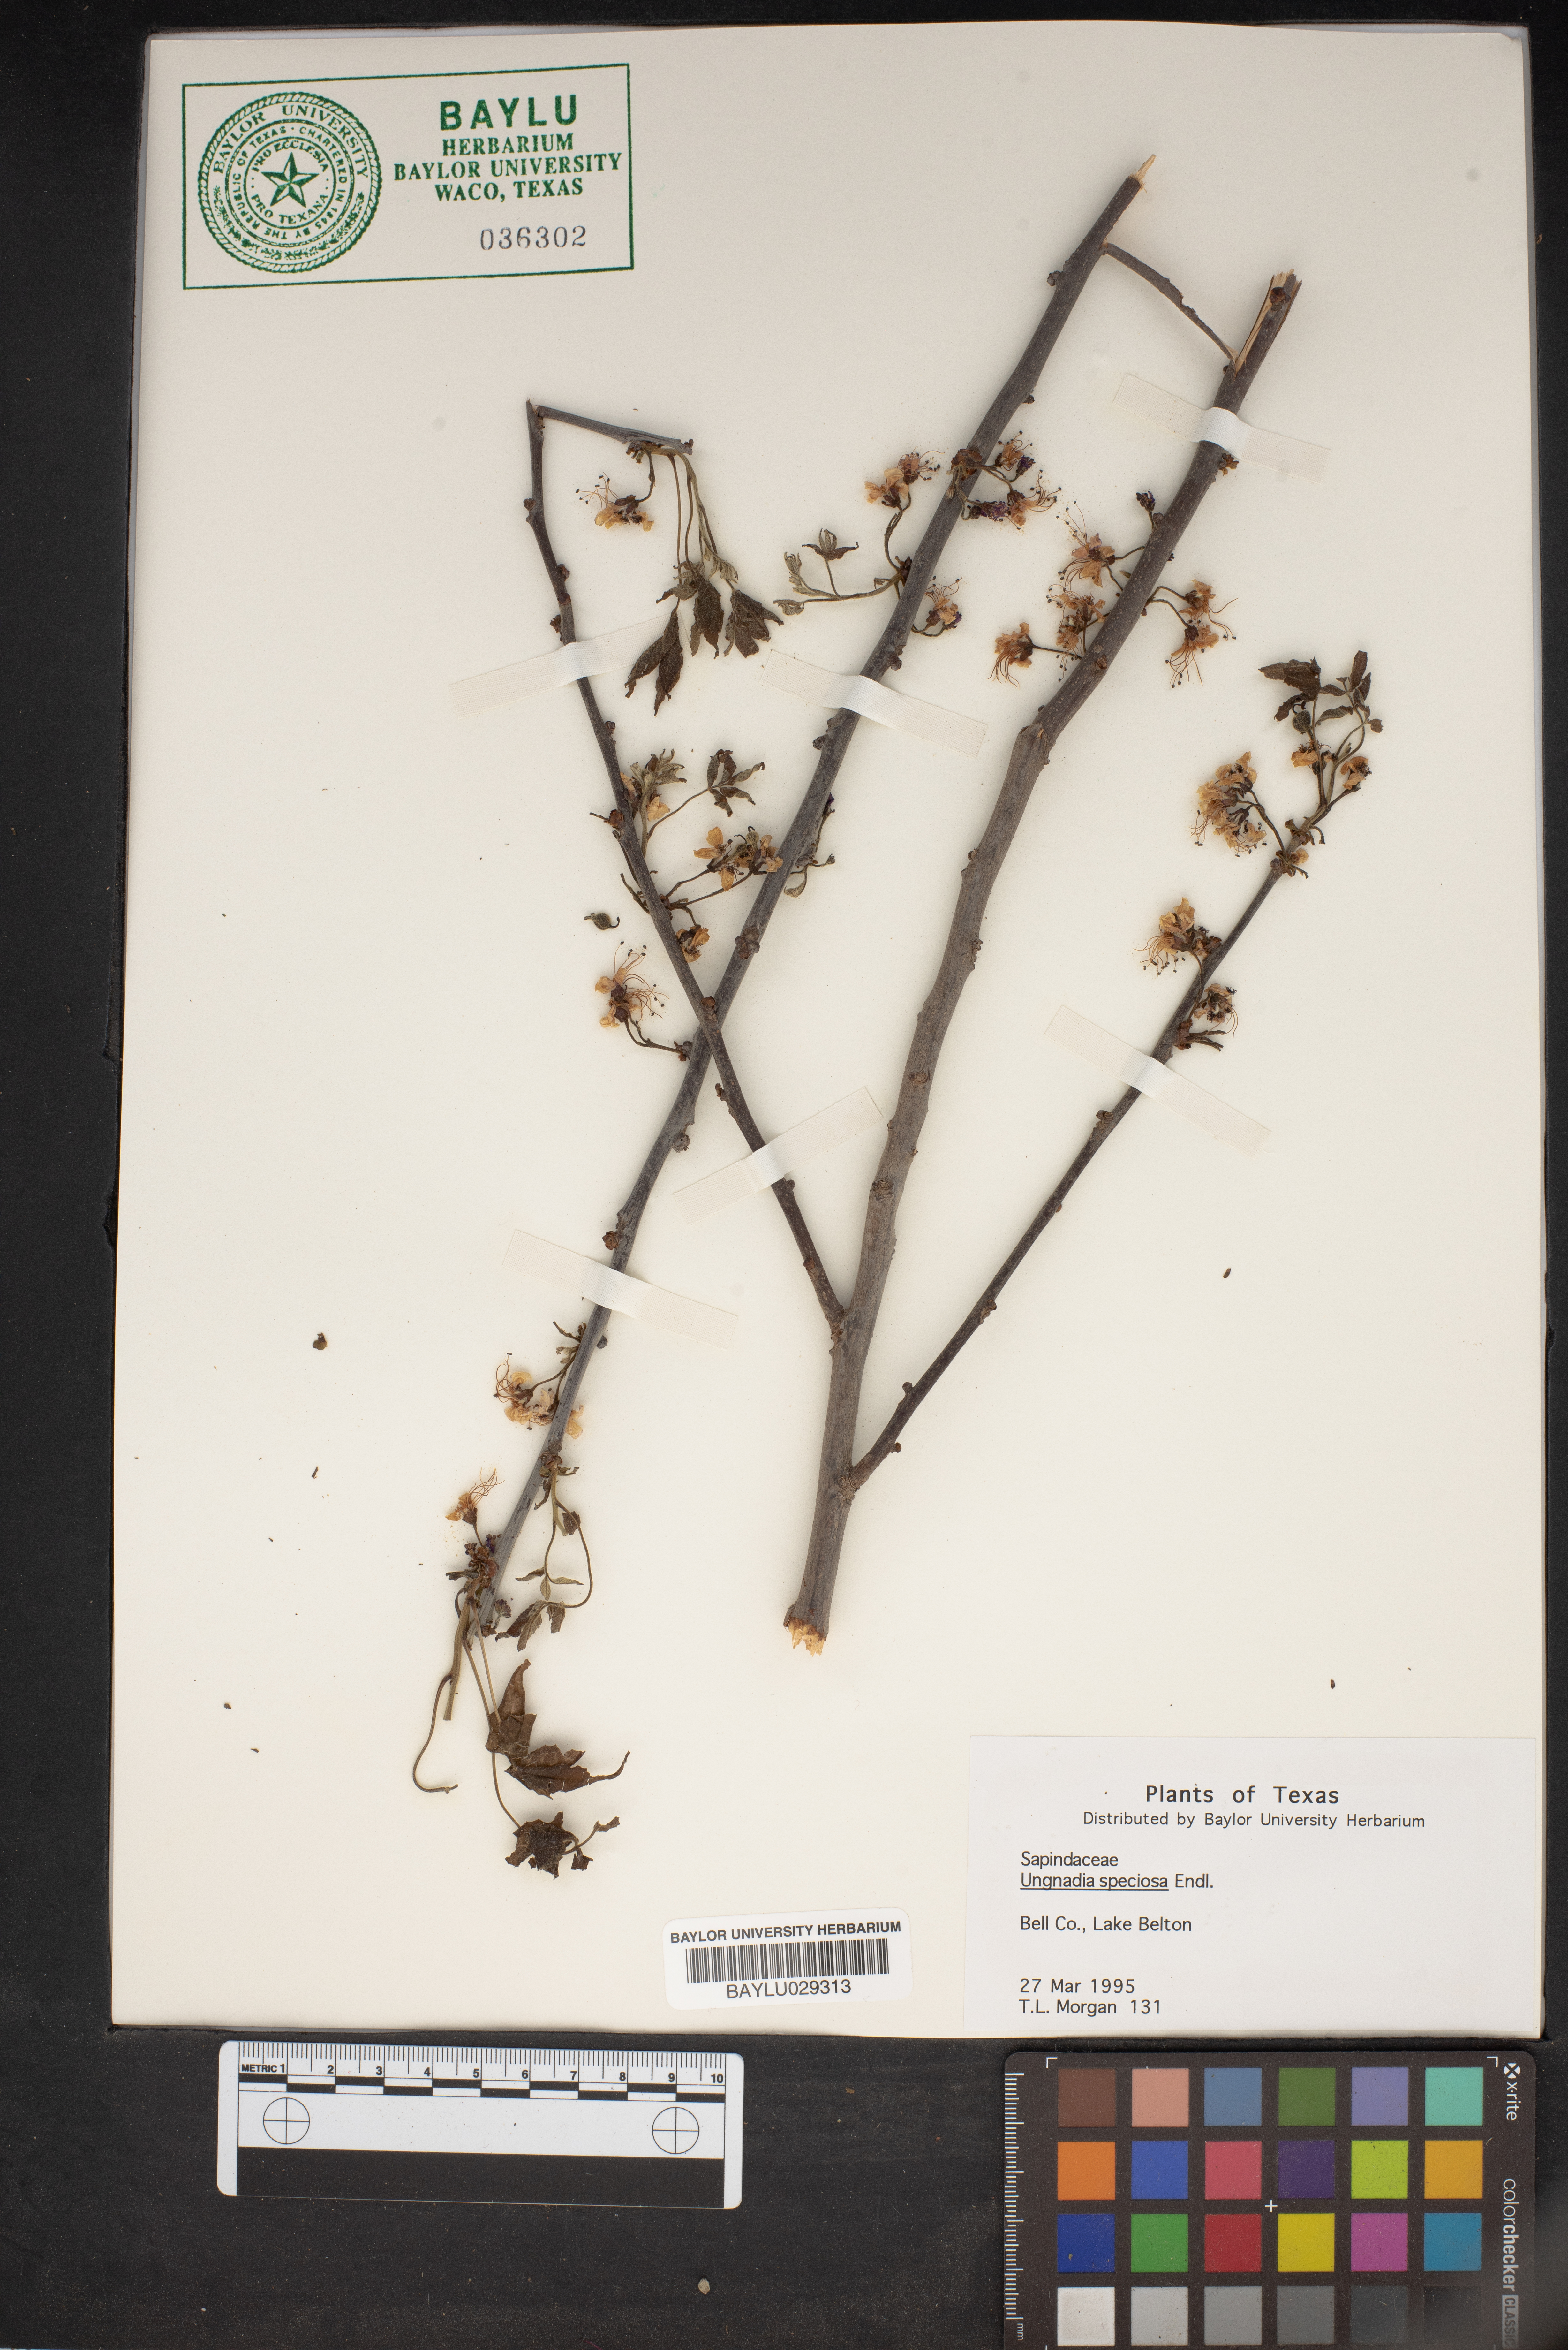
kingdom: Plantae
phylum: Tracheophyta
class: Magnoliopsida
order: Sapindales
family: Sapindaceae
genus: Ungnadia
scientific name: Ungnadia speciosa
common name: Texas-buckeye
